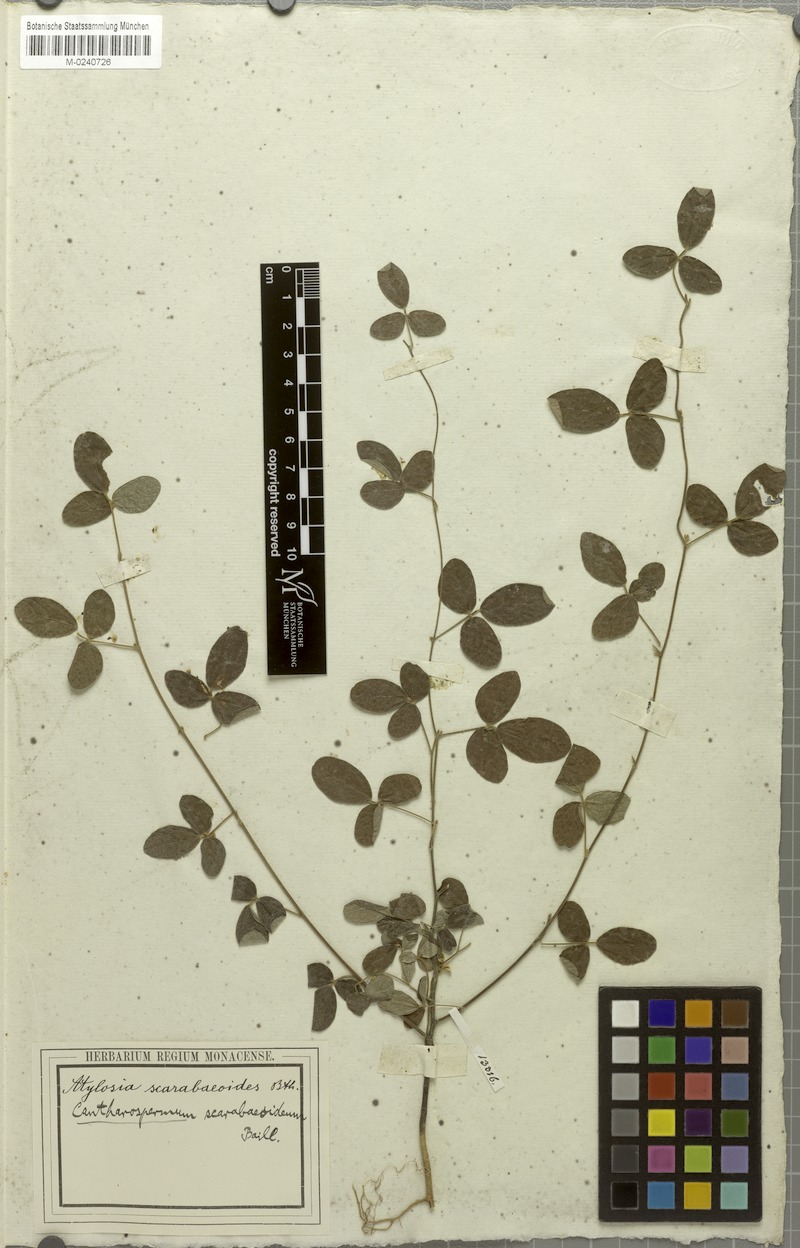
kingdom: Plantae
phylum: Tracheophyta
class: Magnoliopsida
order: Fabales
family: Fabaceae
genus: Cajanus
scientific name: Cajanus scarabaeoides
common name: Showy pigeonpea
